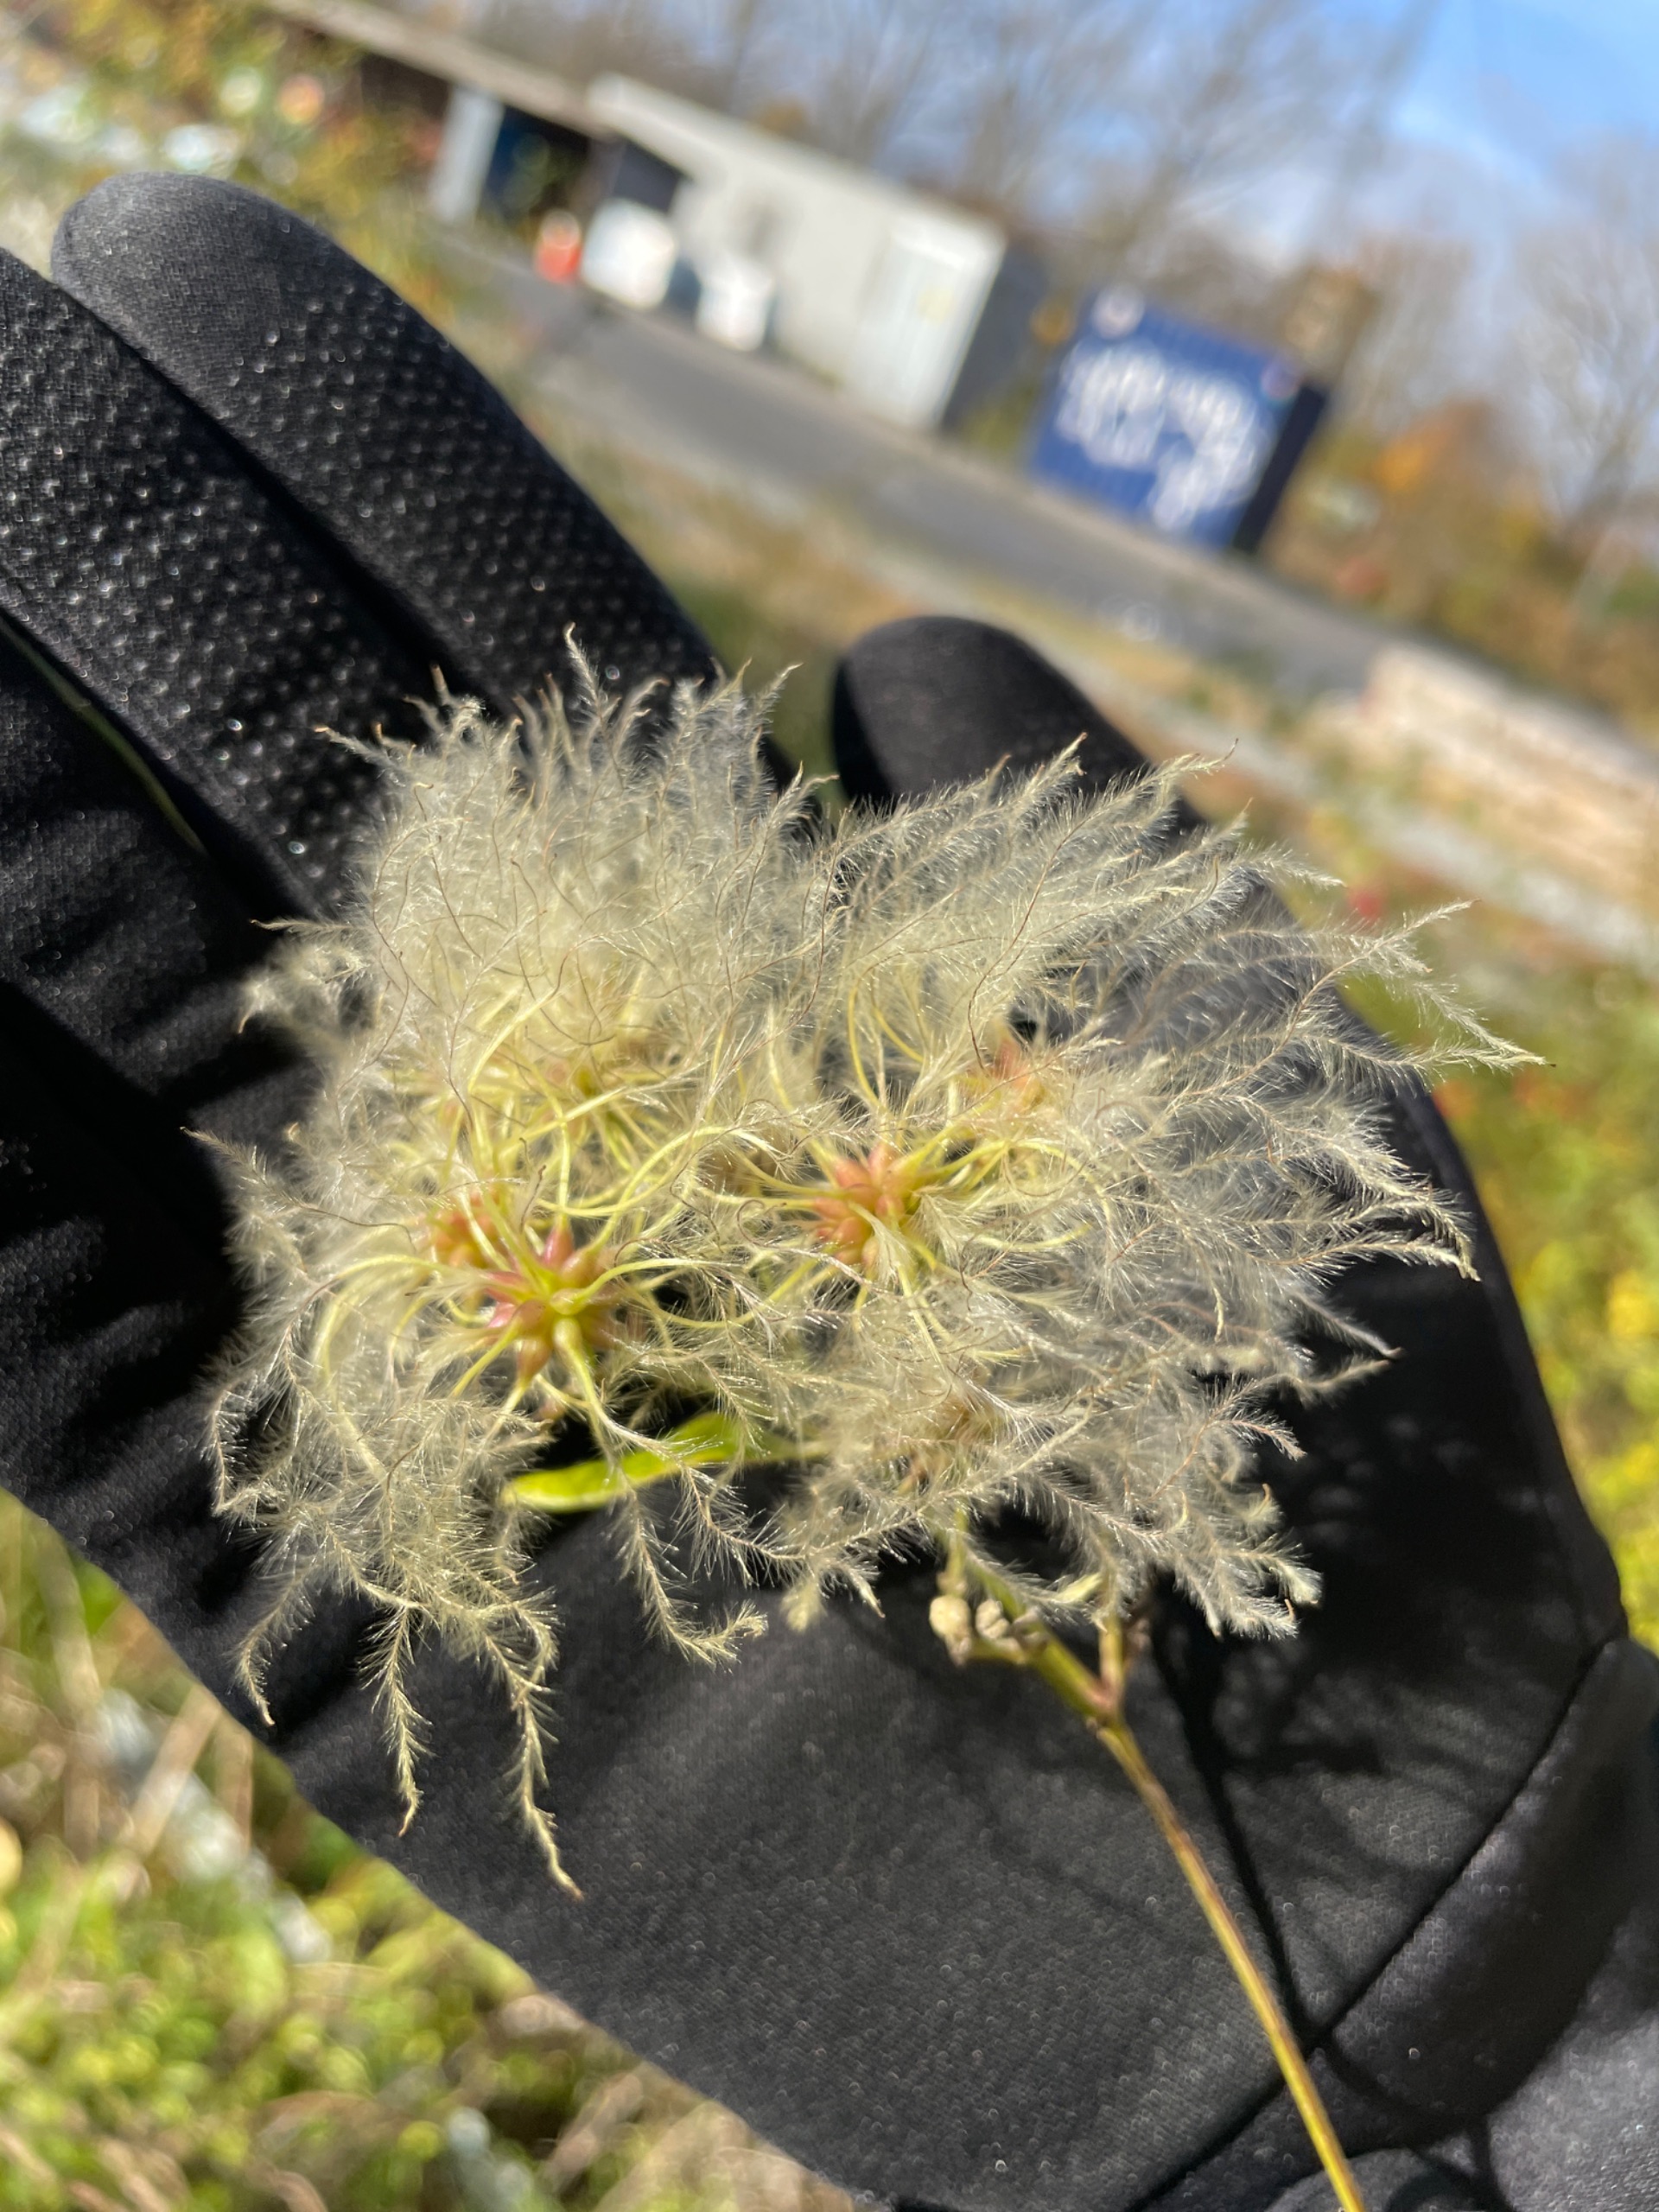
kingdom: Plantae
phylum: Tracheophyta
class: Magnoliopsida
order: Ranunculales
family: Ranunculaceae
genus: Clematis
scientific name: Clematis vitalba
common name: Skovranke
